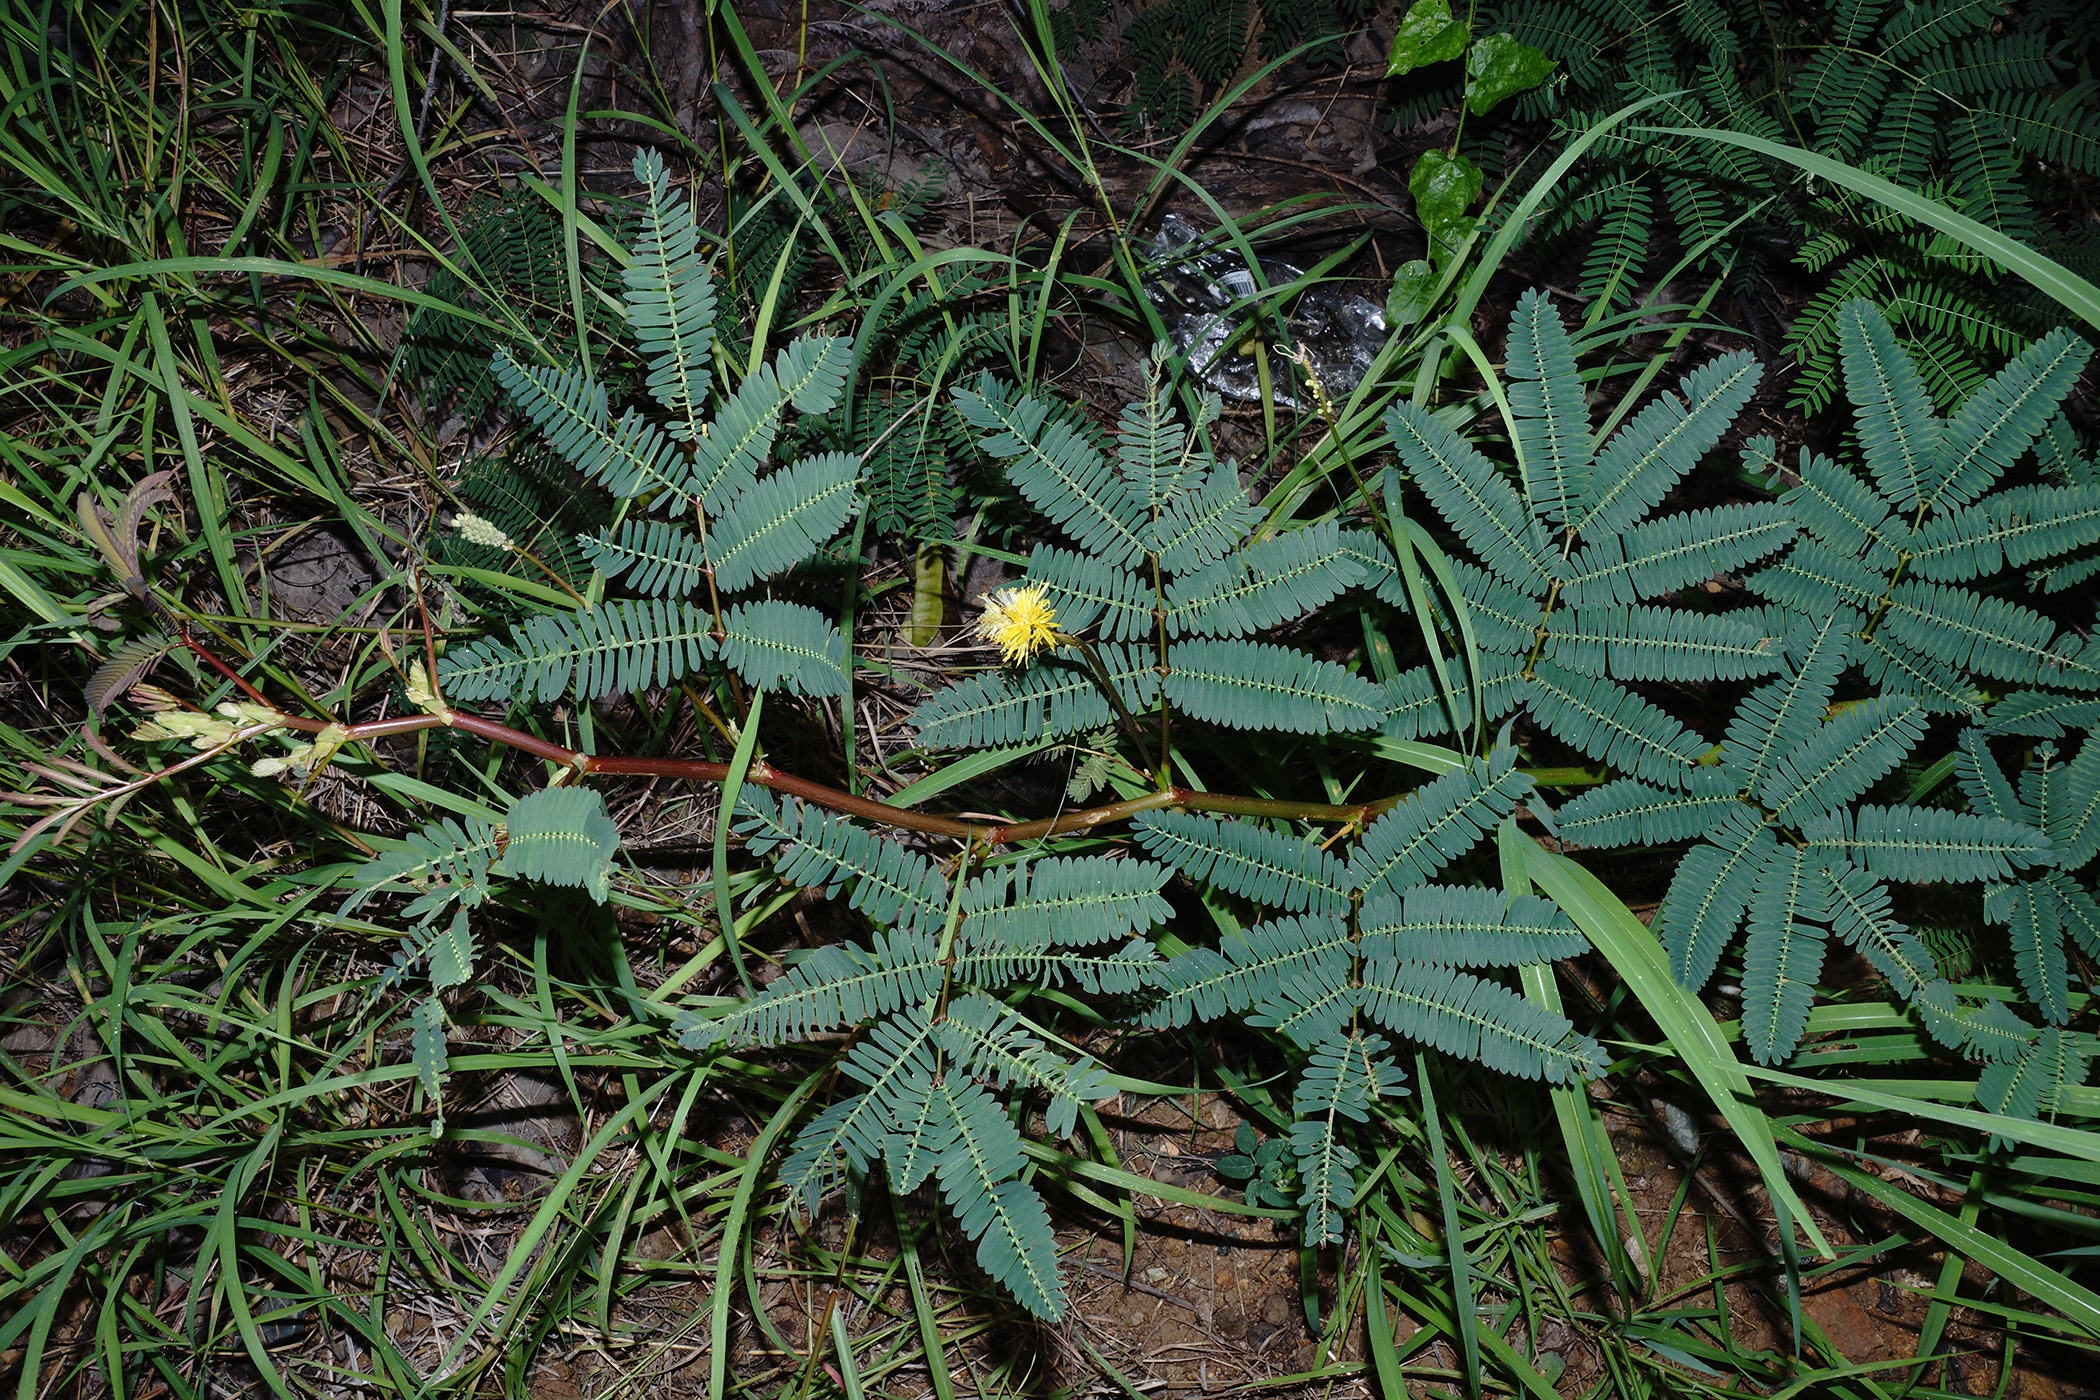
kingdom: Plantae
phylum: Tracheophyta
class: Magnoliopsida
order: Fabales
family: Fabaceae
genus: Neptunia
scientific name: Neptunia prostrata
